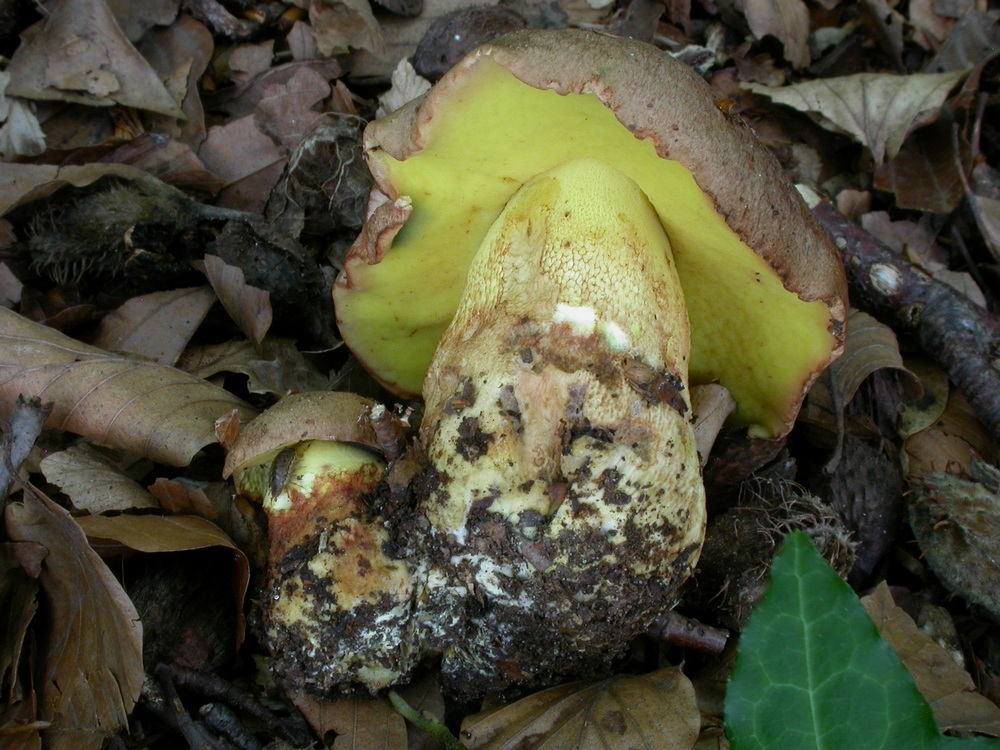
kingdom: Fungi
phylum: Basidiomycota
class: Agaricomycetes
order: Boletales
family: Boletaceae
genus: Butyriboletus
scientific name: Butyriboletus appendiculatus
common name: tenstokket rørhat
